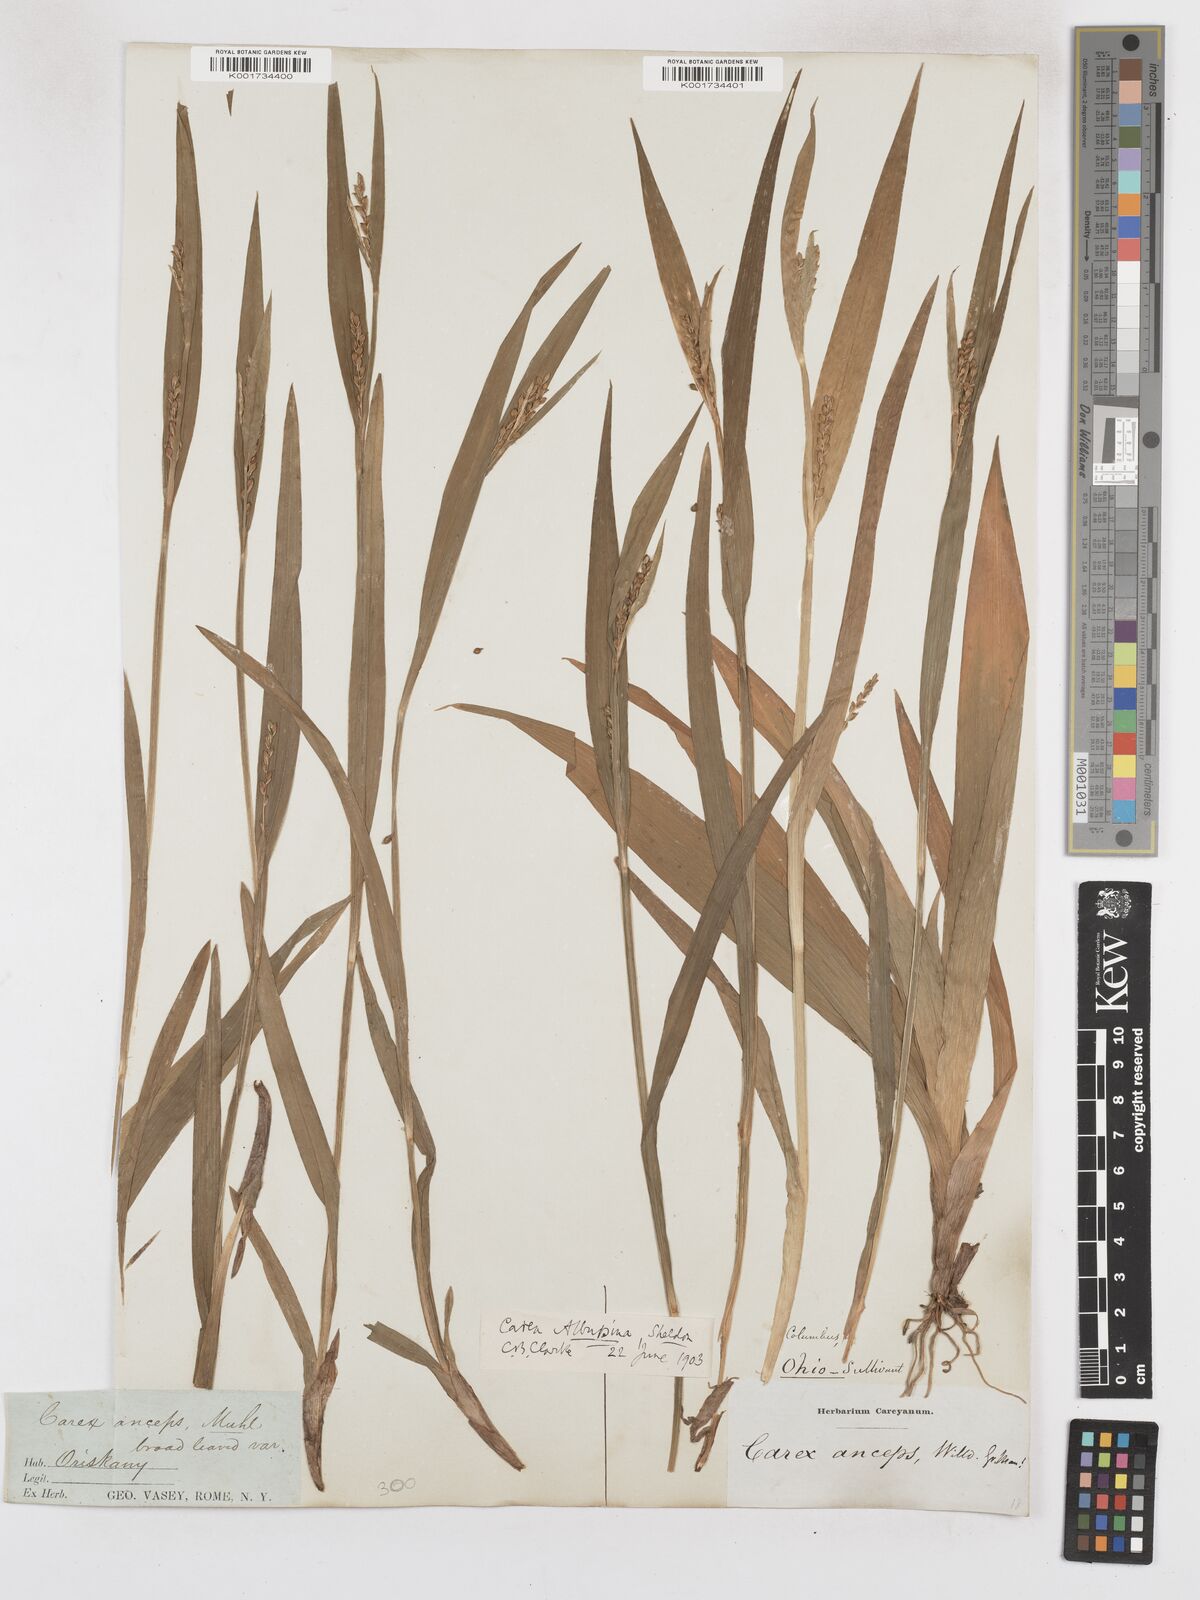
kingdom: Plantae
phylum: Tracheophyta
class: Liliopsida
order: Poales
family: Cyperaceae
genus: Carex
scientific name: Carex albursina
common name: Blunt-scale wood sedge
